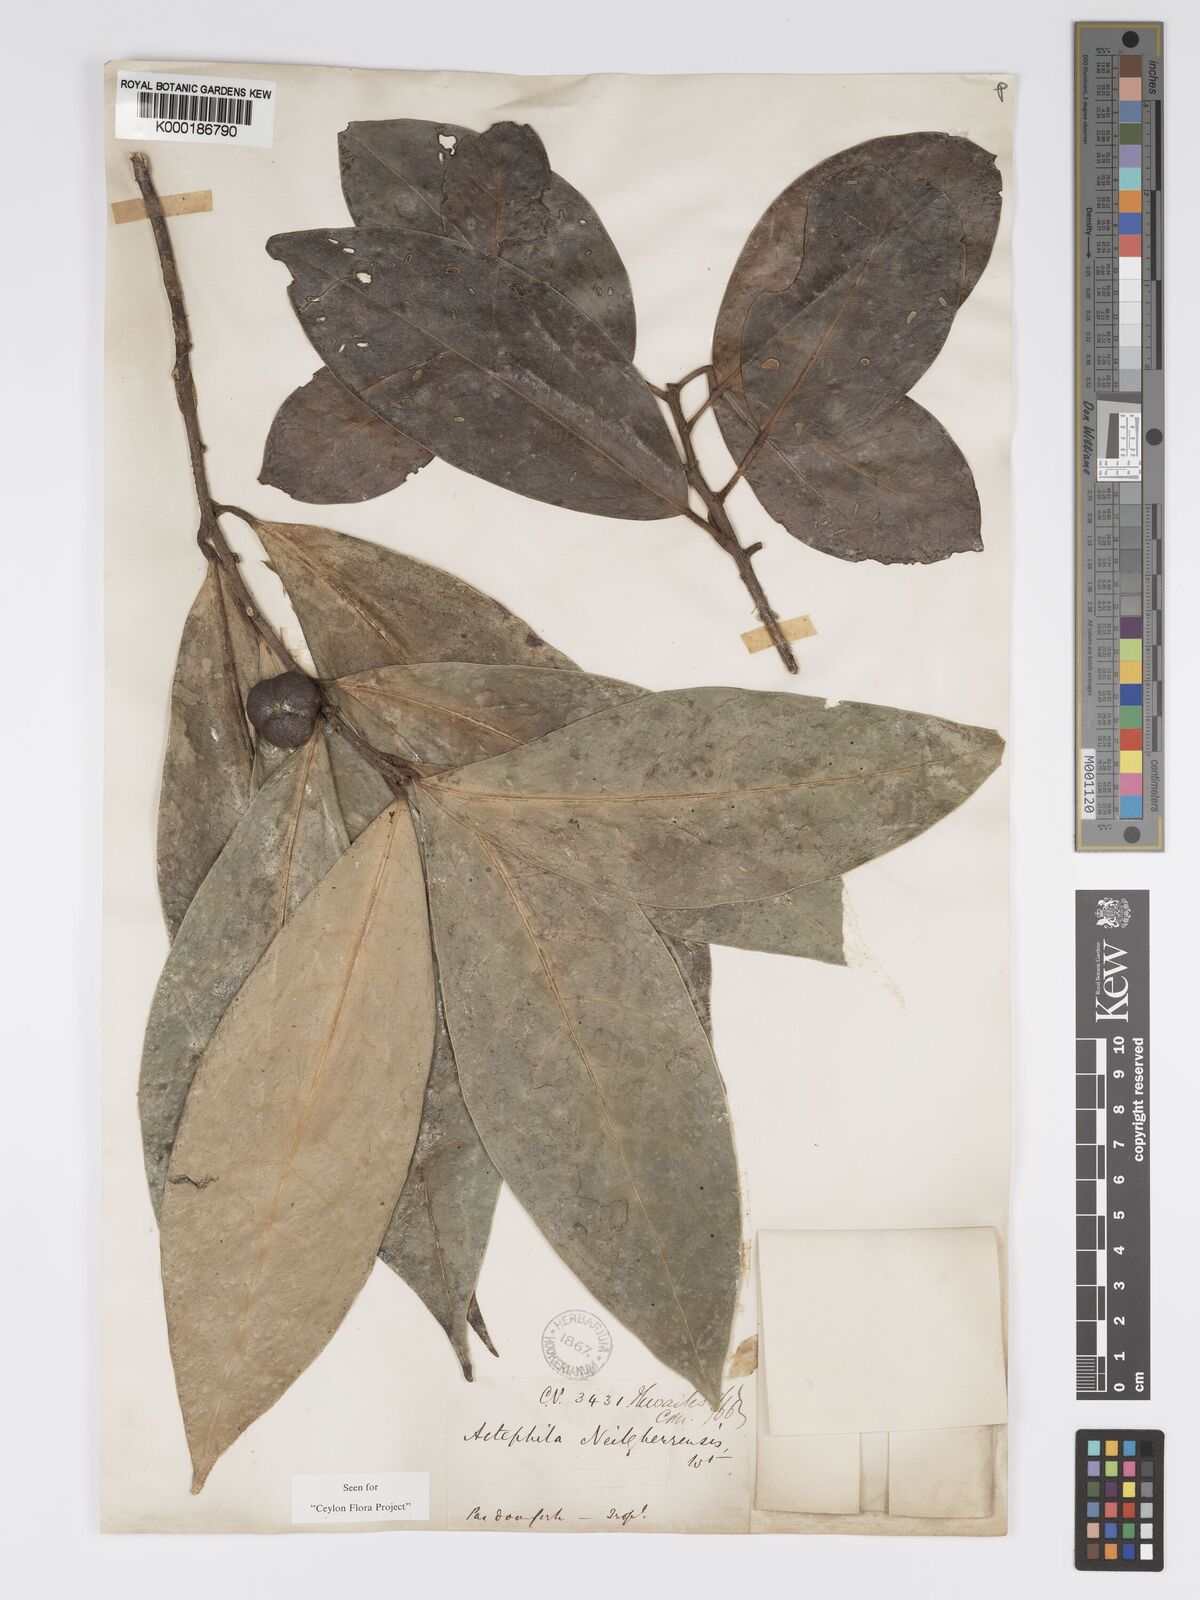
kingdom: Plantae
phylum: Tracheophyta
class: Magnoliopsida
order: Malpighiales
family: Phyllanthaceae
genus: Actephila
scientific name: Actephila excelsa
